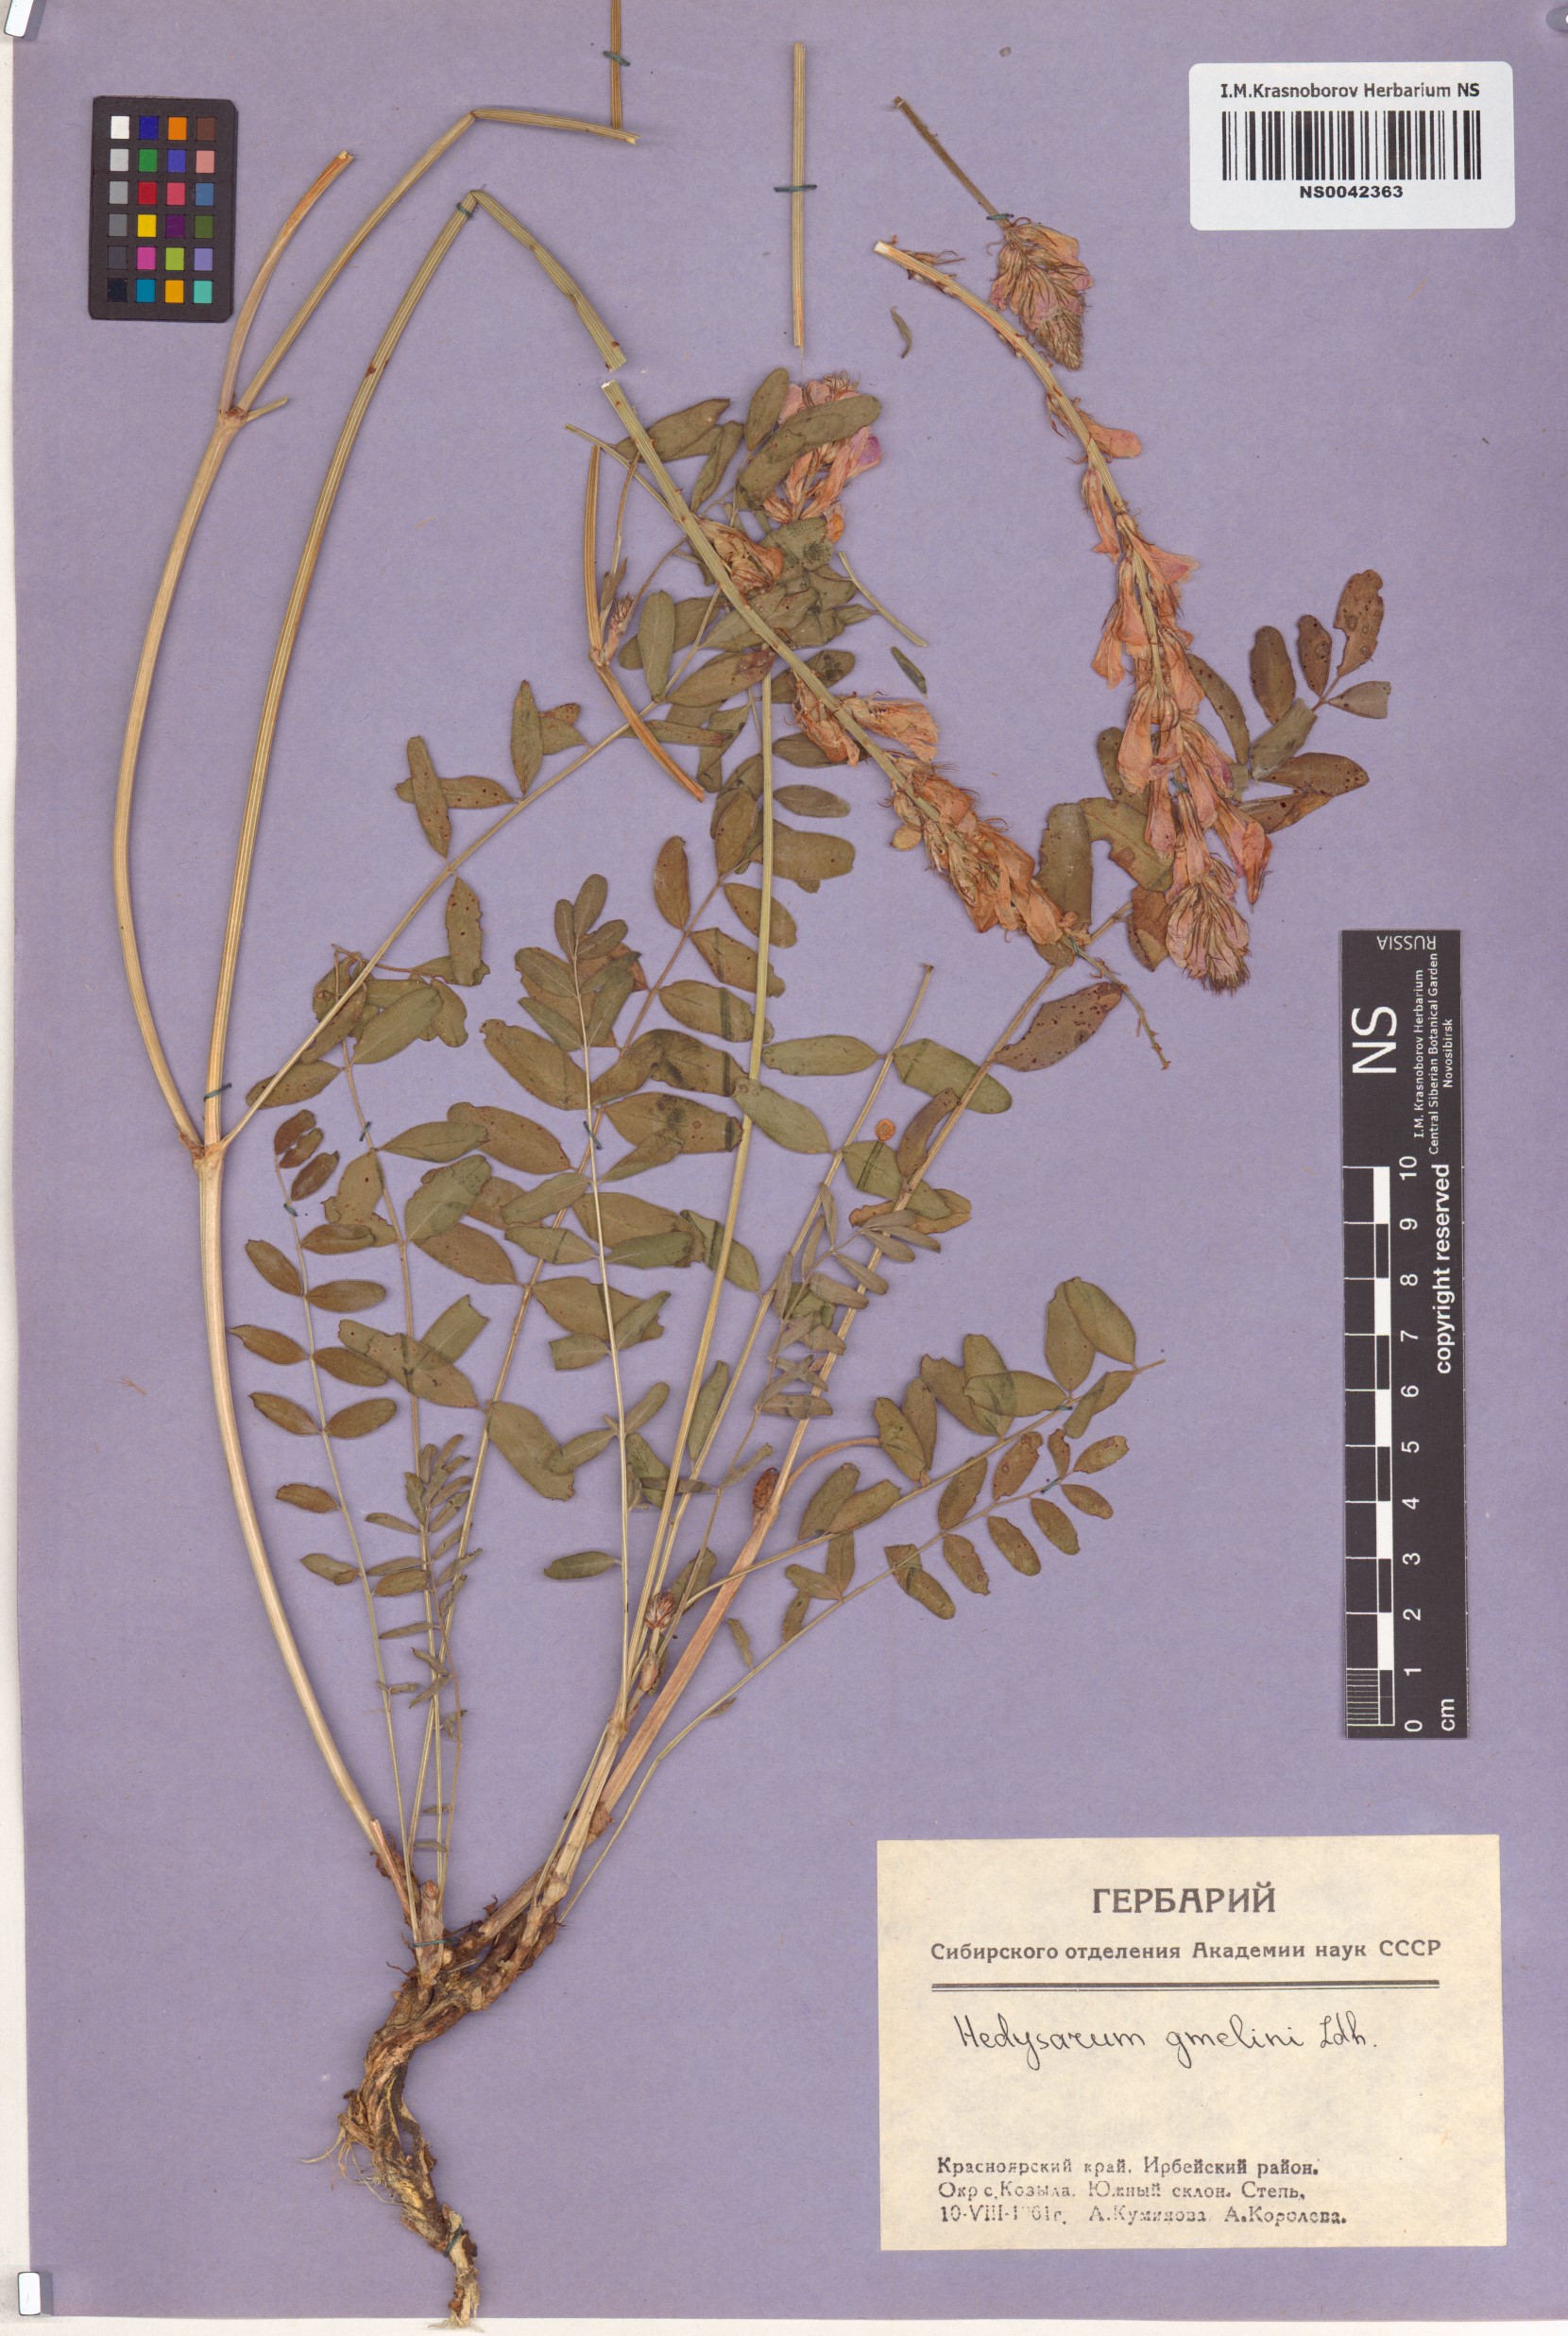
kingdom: Plantae
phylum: Tracheophyta
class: Magnoliopsida
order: Fabales
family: Fabaceae
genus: Hedysarum
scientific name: Hedysarum gmelinii
